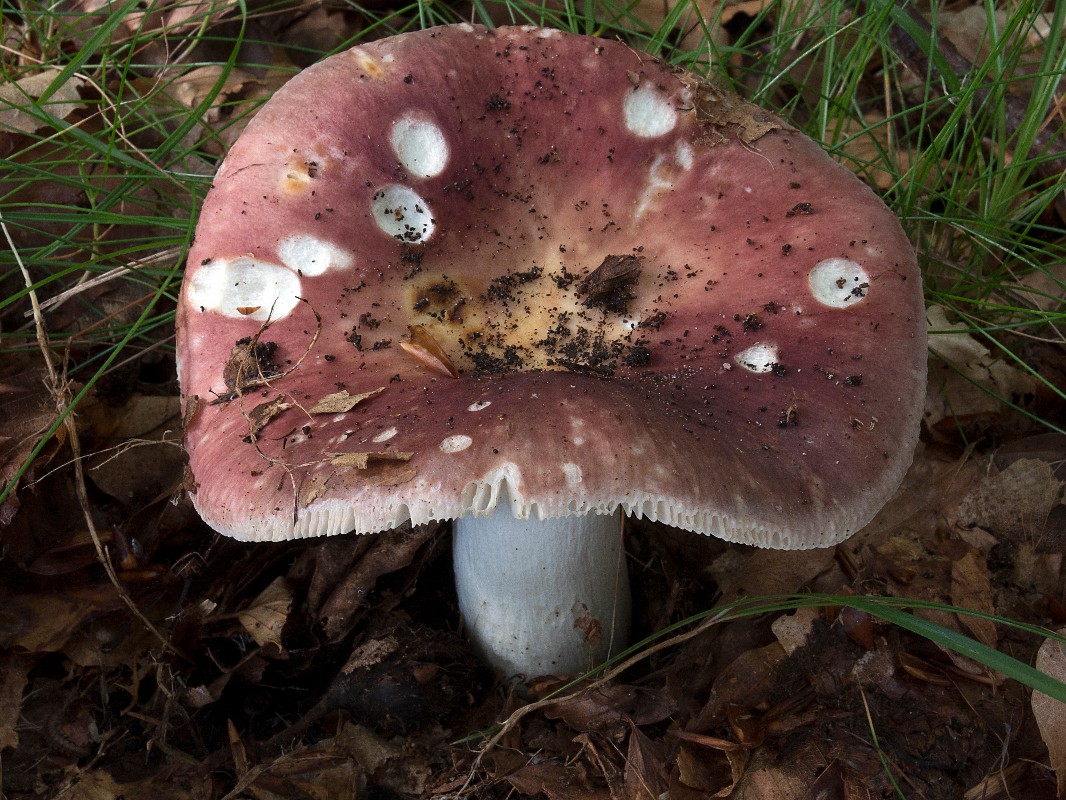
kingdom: Fungi
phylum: Basidiomycota
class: Agaricomycetes
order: Russulales
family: Russulaceae
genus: Russula
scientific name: Russula vesca
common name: spiselig skørhat
